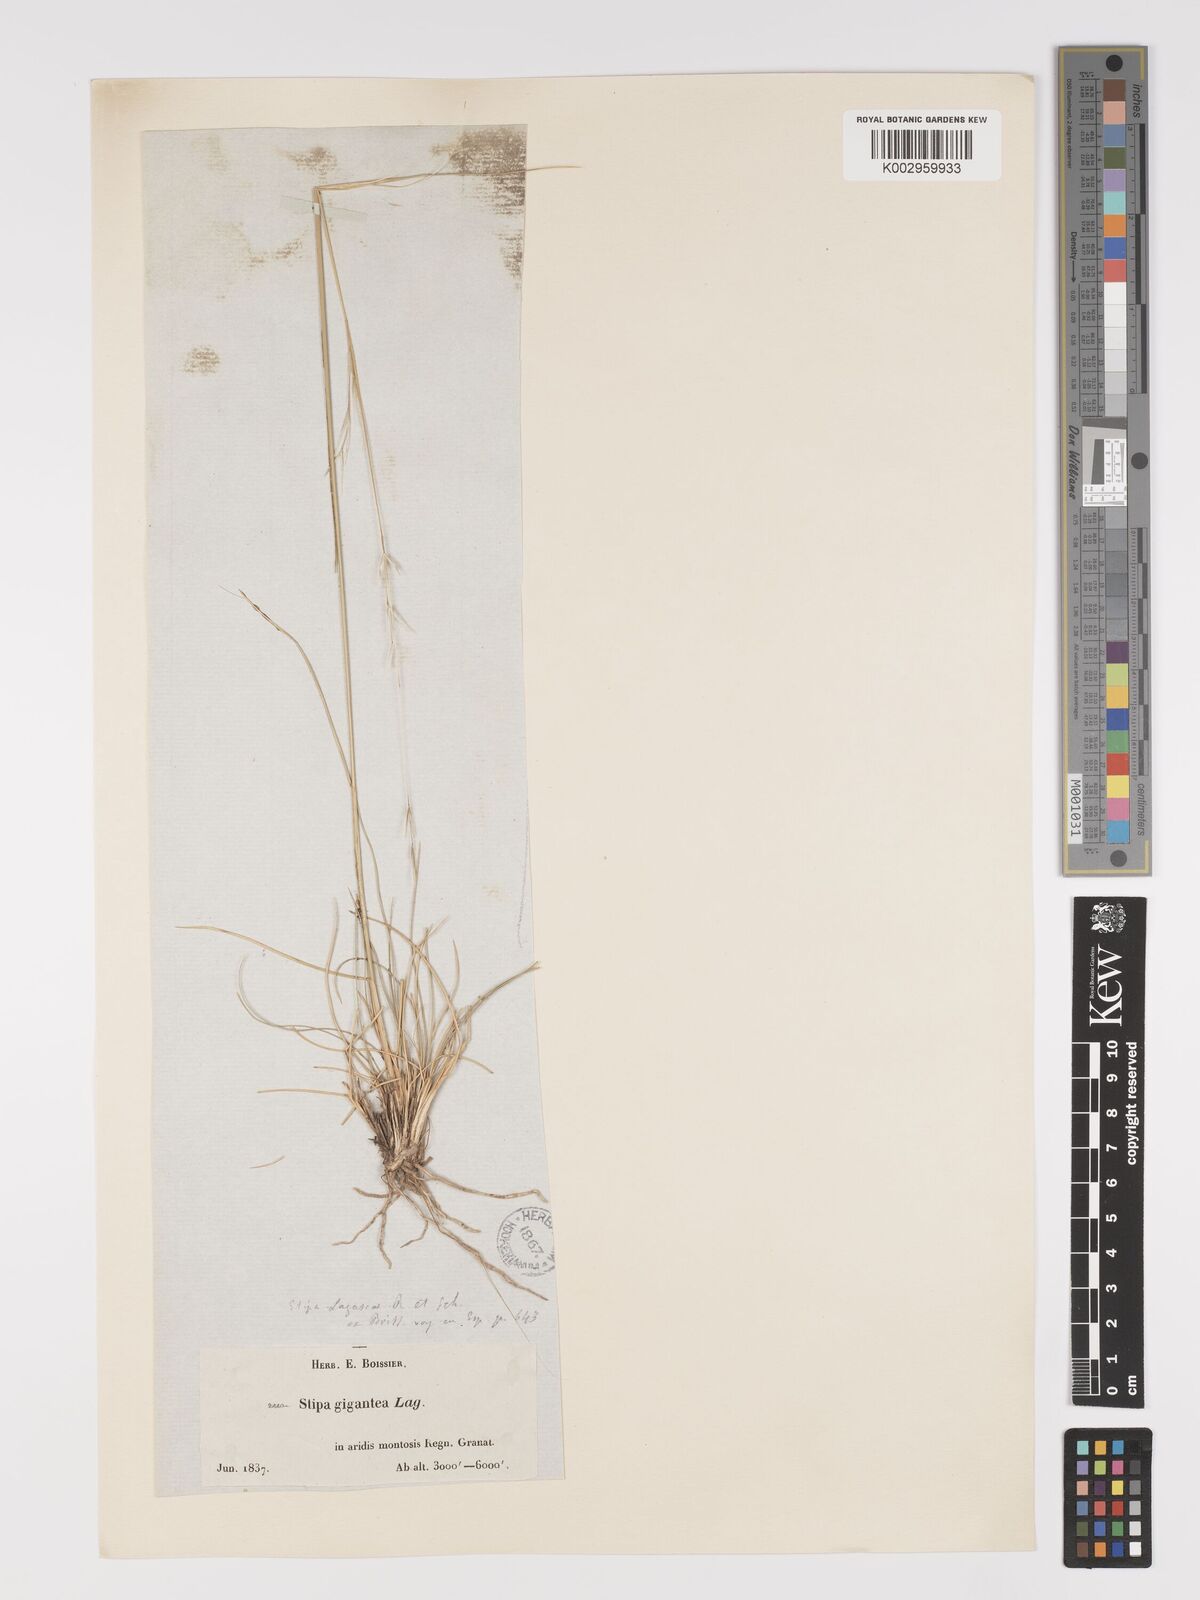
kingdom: Plantae
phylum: Tracheophyta
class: Liliopsida
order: Poales
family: Poaceae
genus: Stipa
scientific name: Stipa
